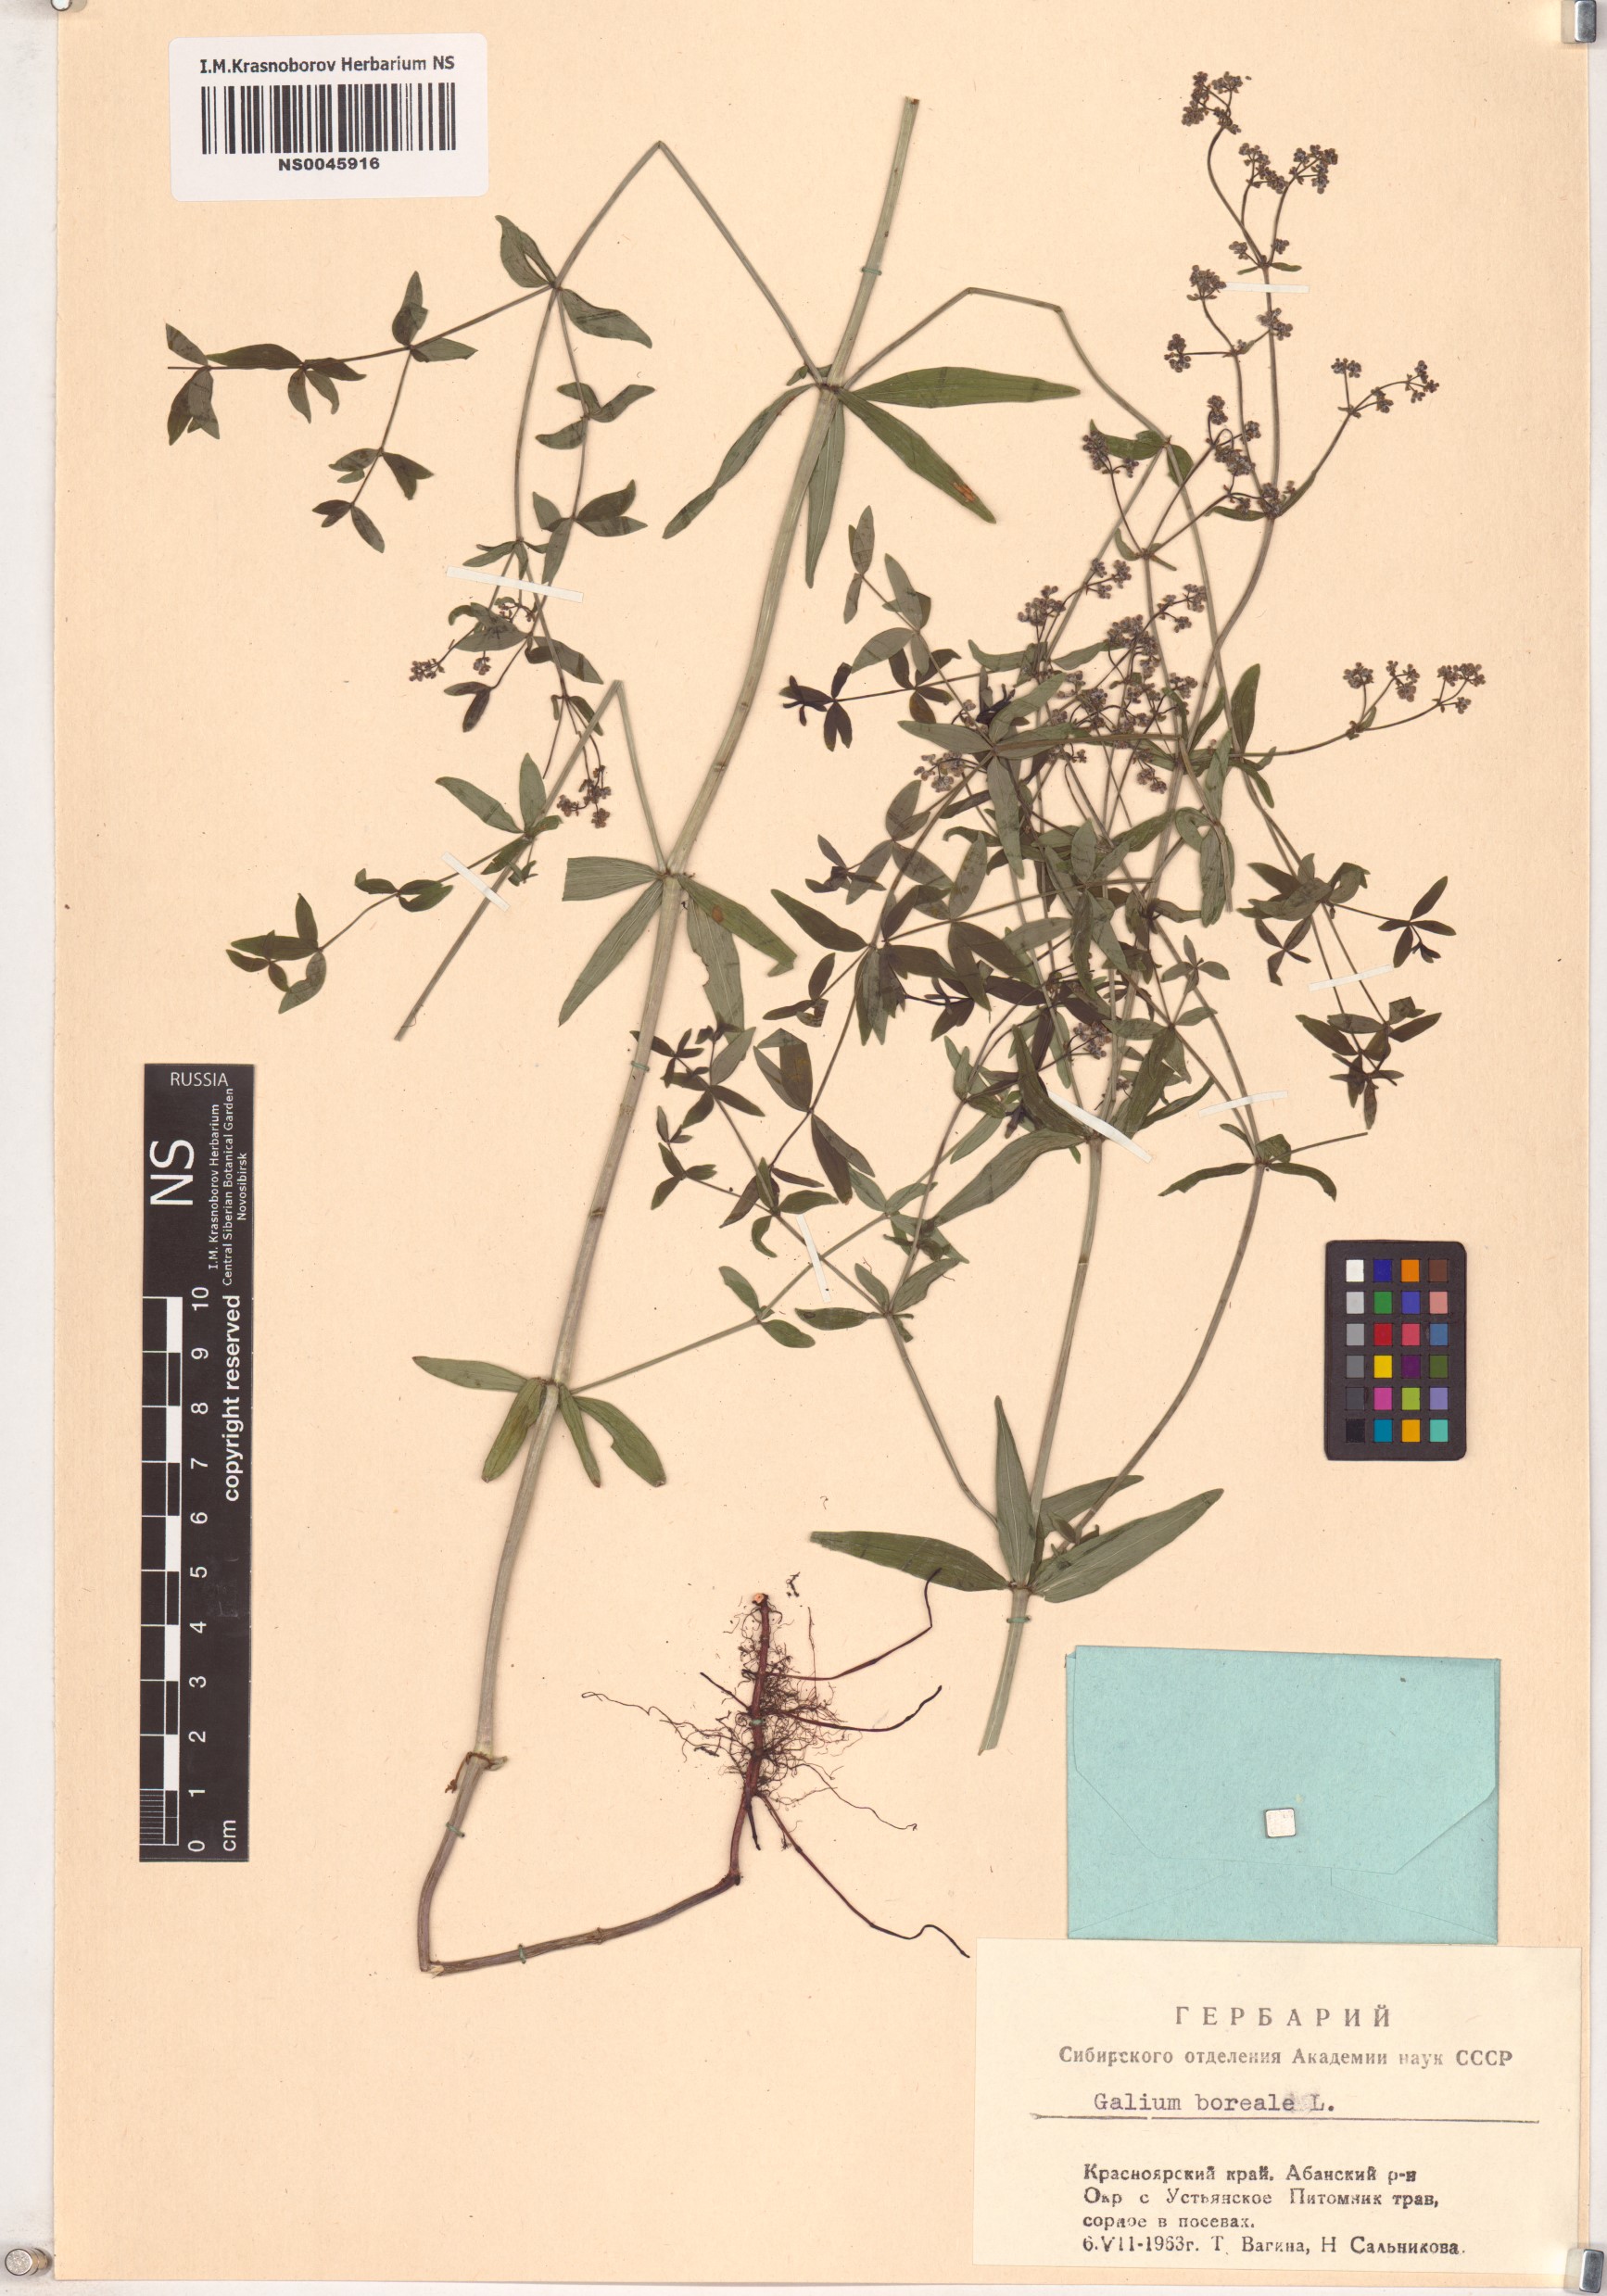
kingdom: Plantae
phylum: Tracheophyta
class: Magnoliopsida
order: Gentianales
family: Rubiaceae
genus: Galium
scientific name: Galium boreale
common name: Northern bedstraw
